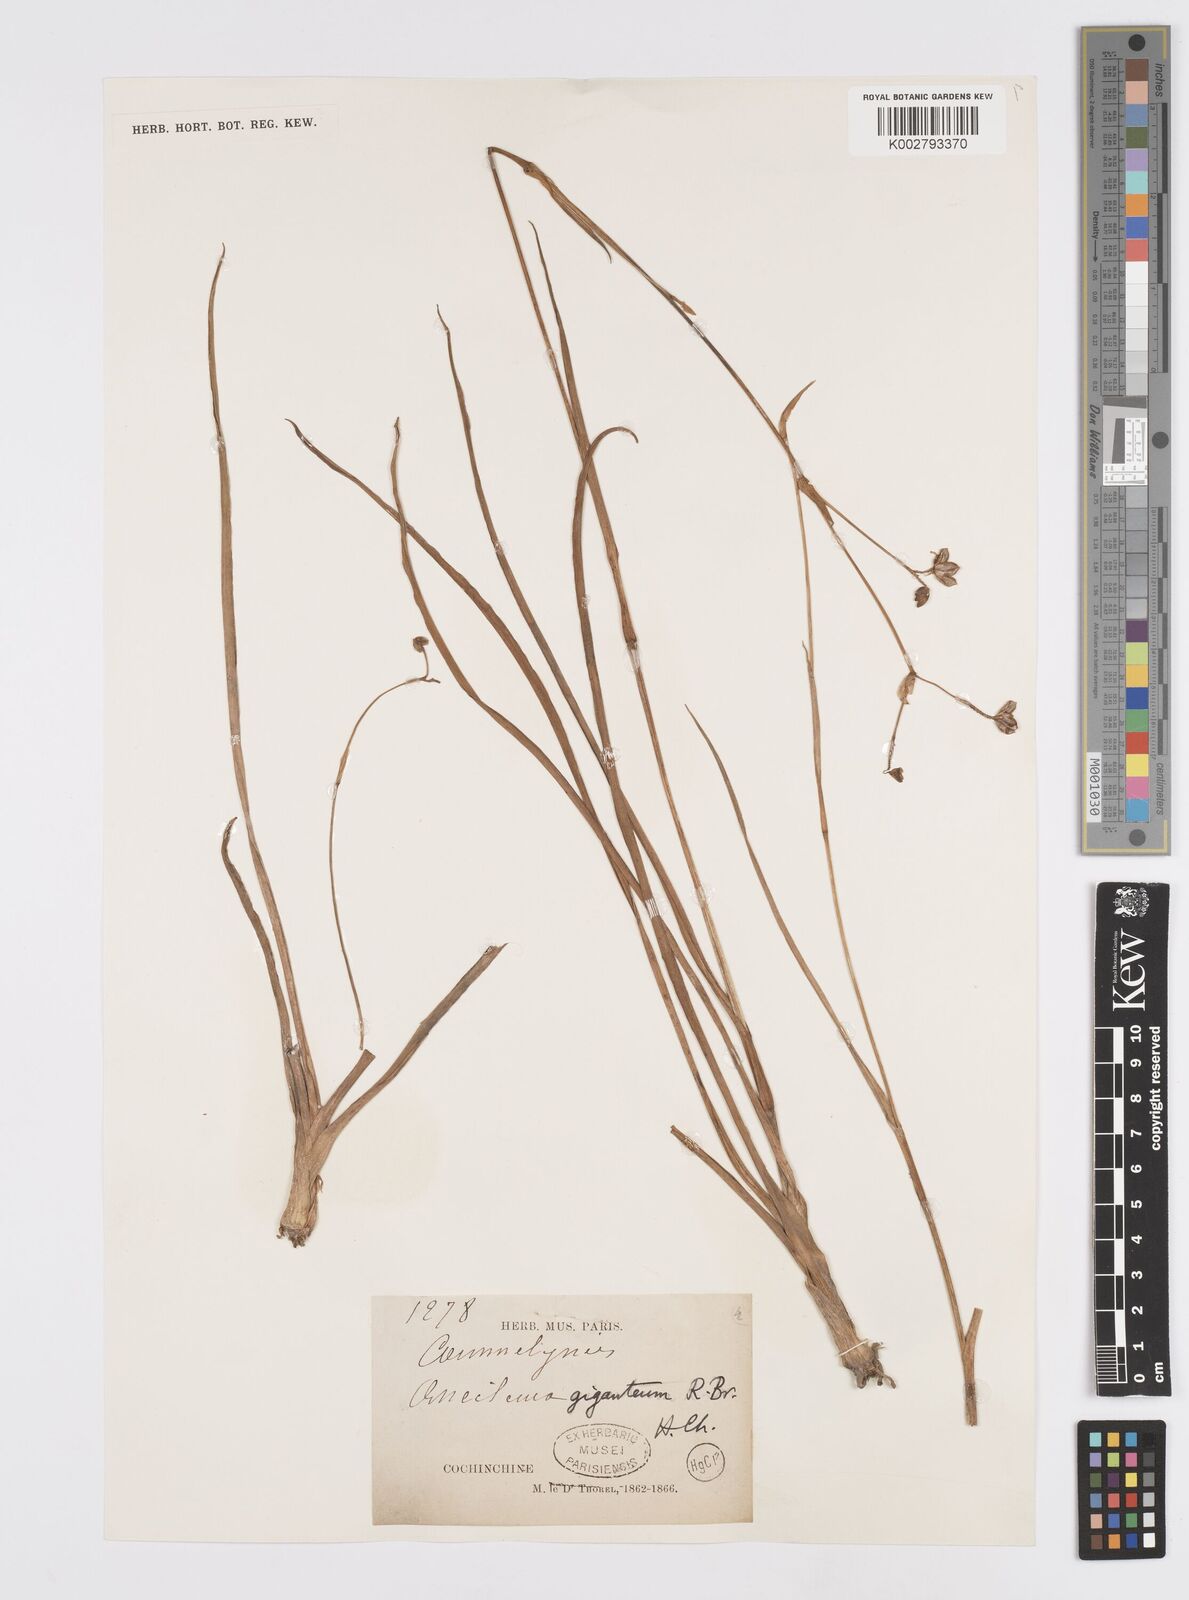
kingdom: Plantae
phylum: Tracheophyta
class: Liliopsida
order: Commelinales
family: Commelinaceae
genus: Murdannia
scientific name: Murdannia gigantea
